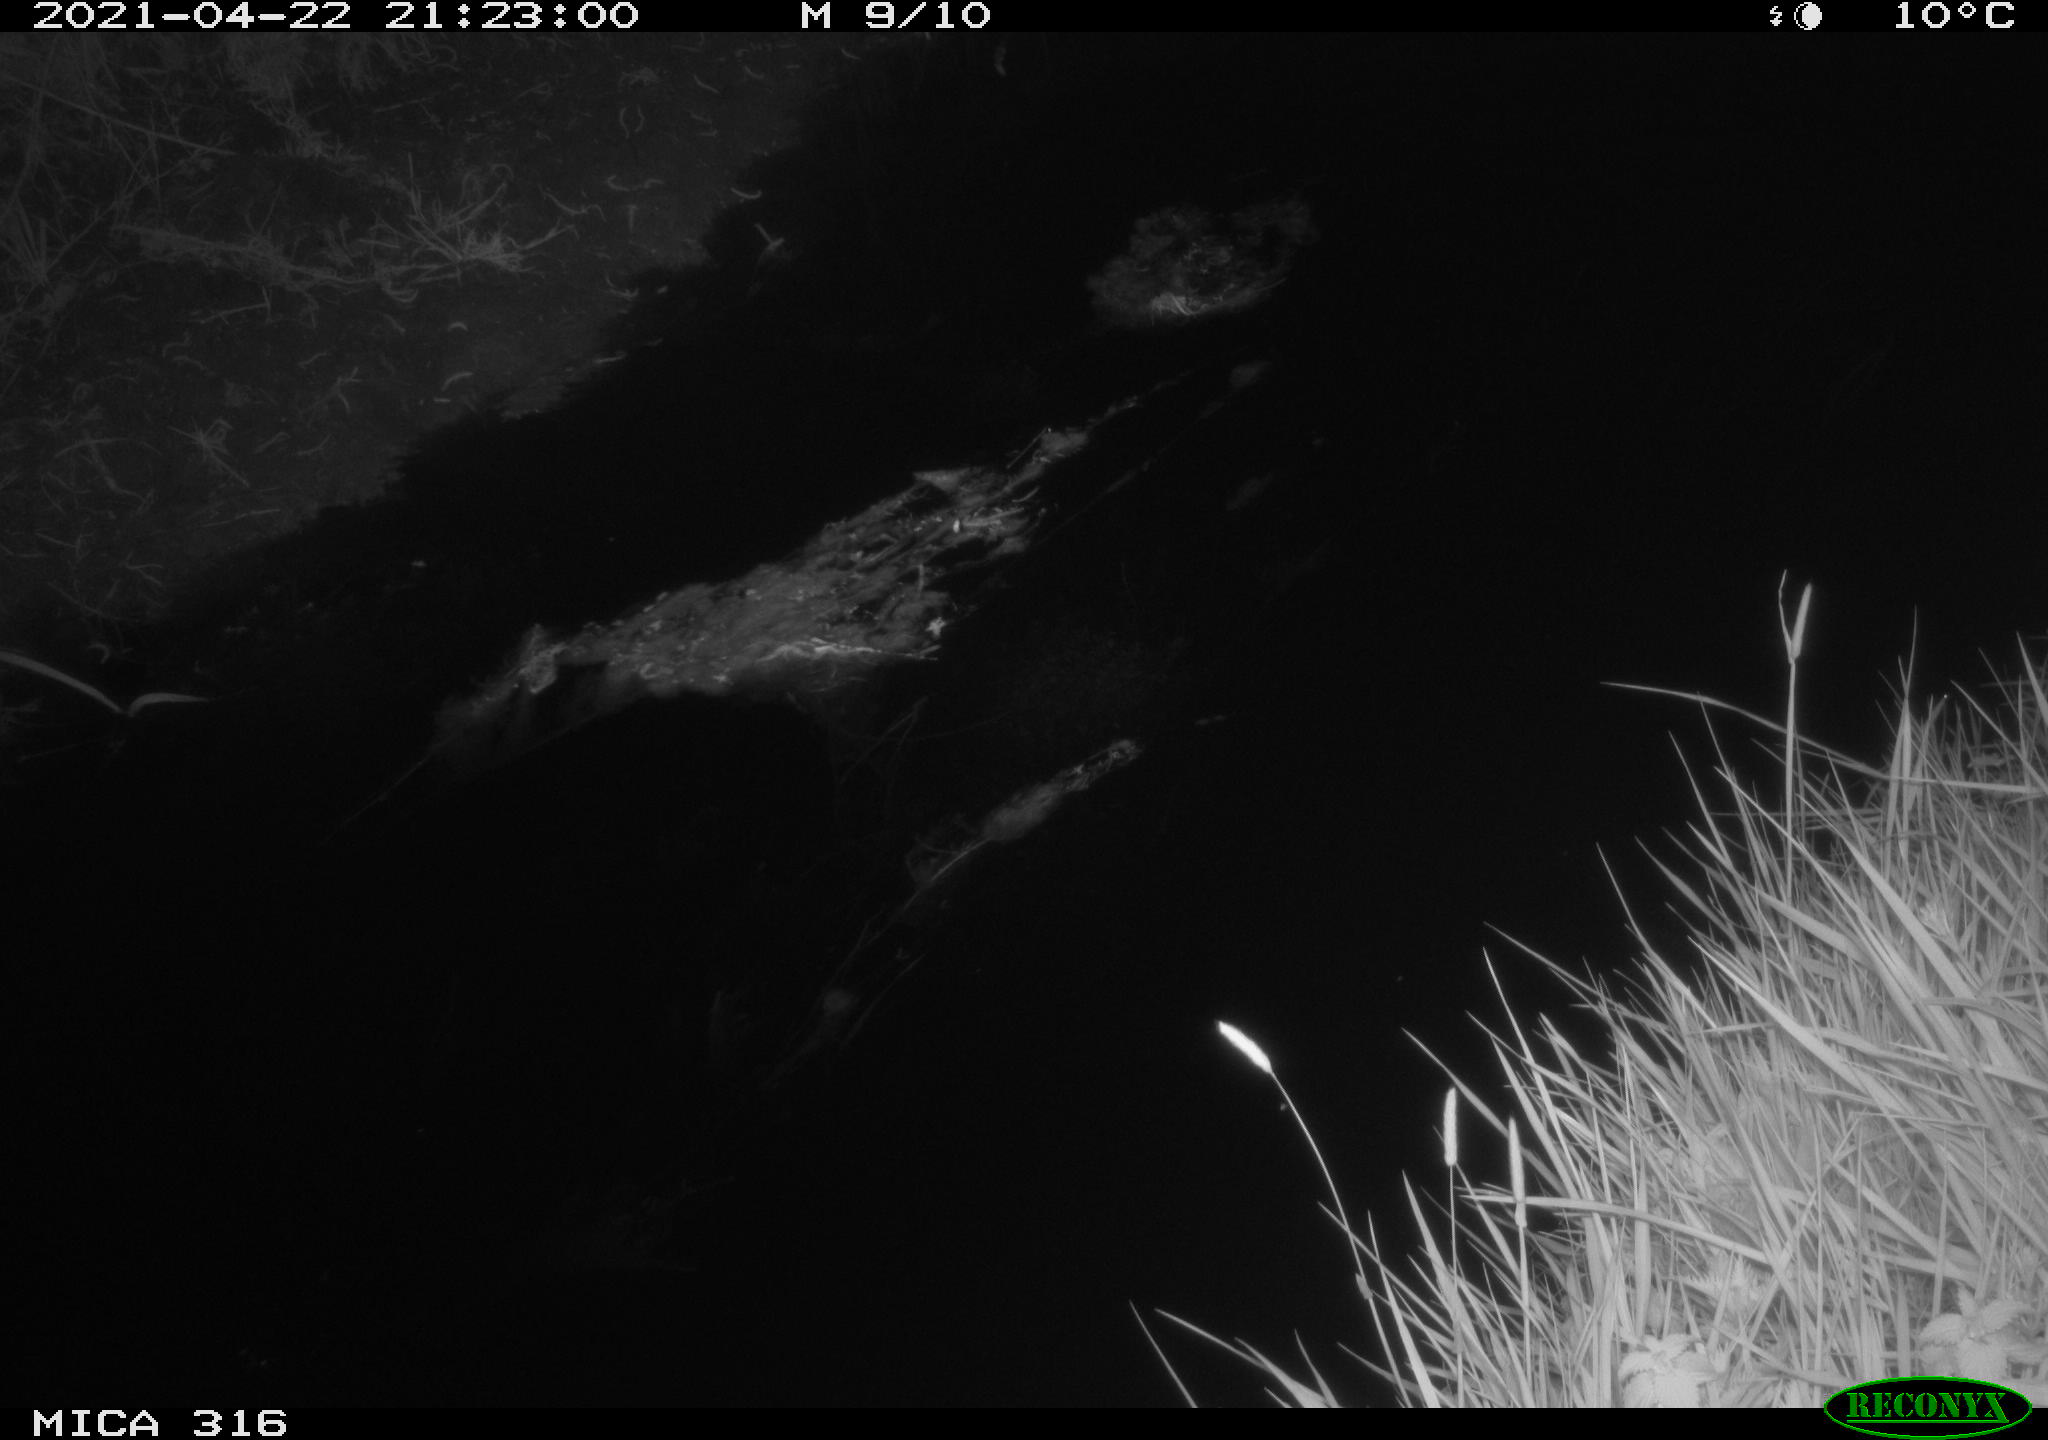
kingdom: Animalia
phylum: Chordata
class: Aves
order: Anseriformes
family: Anatidae
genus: Anas
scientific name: Anas platyrhynchos
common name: Mallard
